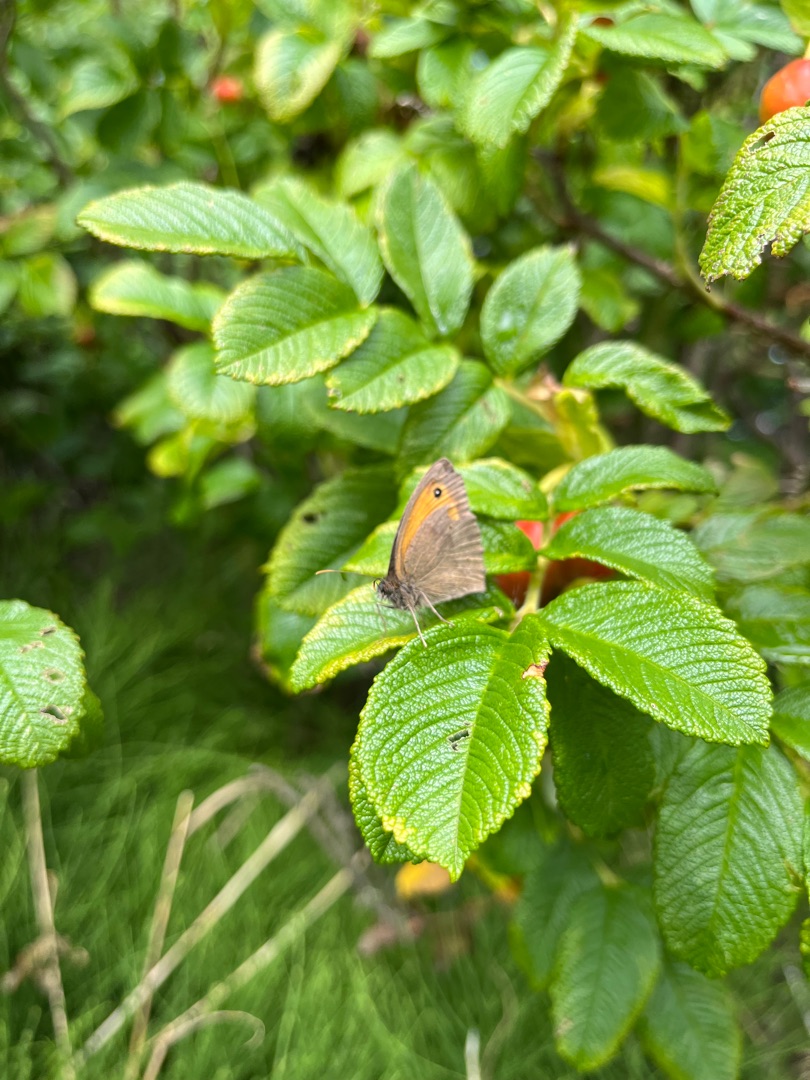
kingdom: Animalia
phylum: Arthropoda
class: Insecta
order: Lepidoptera
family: Nymphalidae
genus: Maniola
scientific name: Maniola jurtina
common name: Græsrandøje
